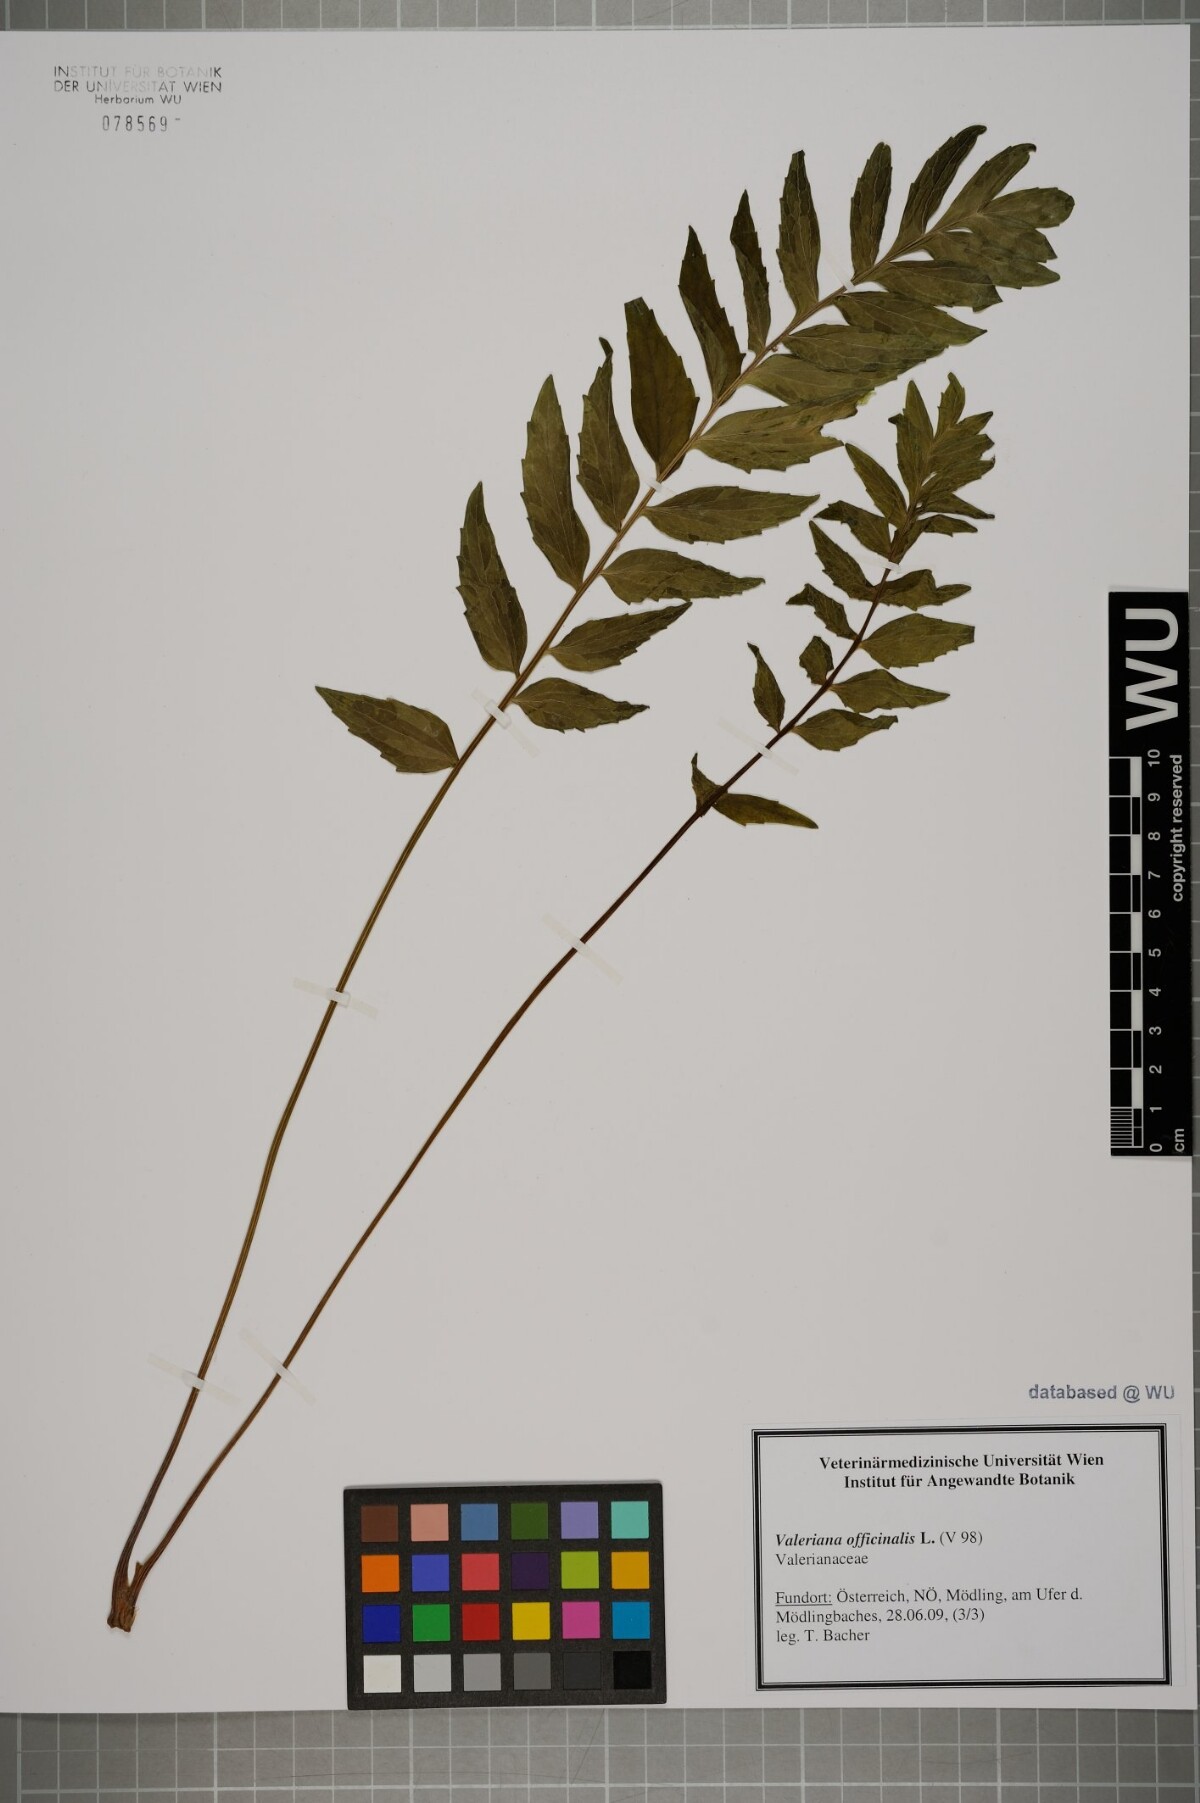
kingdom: Plantae
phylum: Tracheophyta
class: Magnoliopsida
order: Dipsacales
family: Caprifoliaceae
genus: Valeriana
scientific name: Valeriana officinalis
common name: Common valerian
